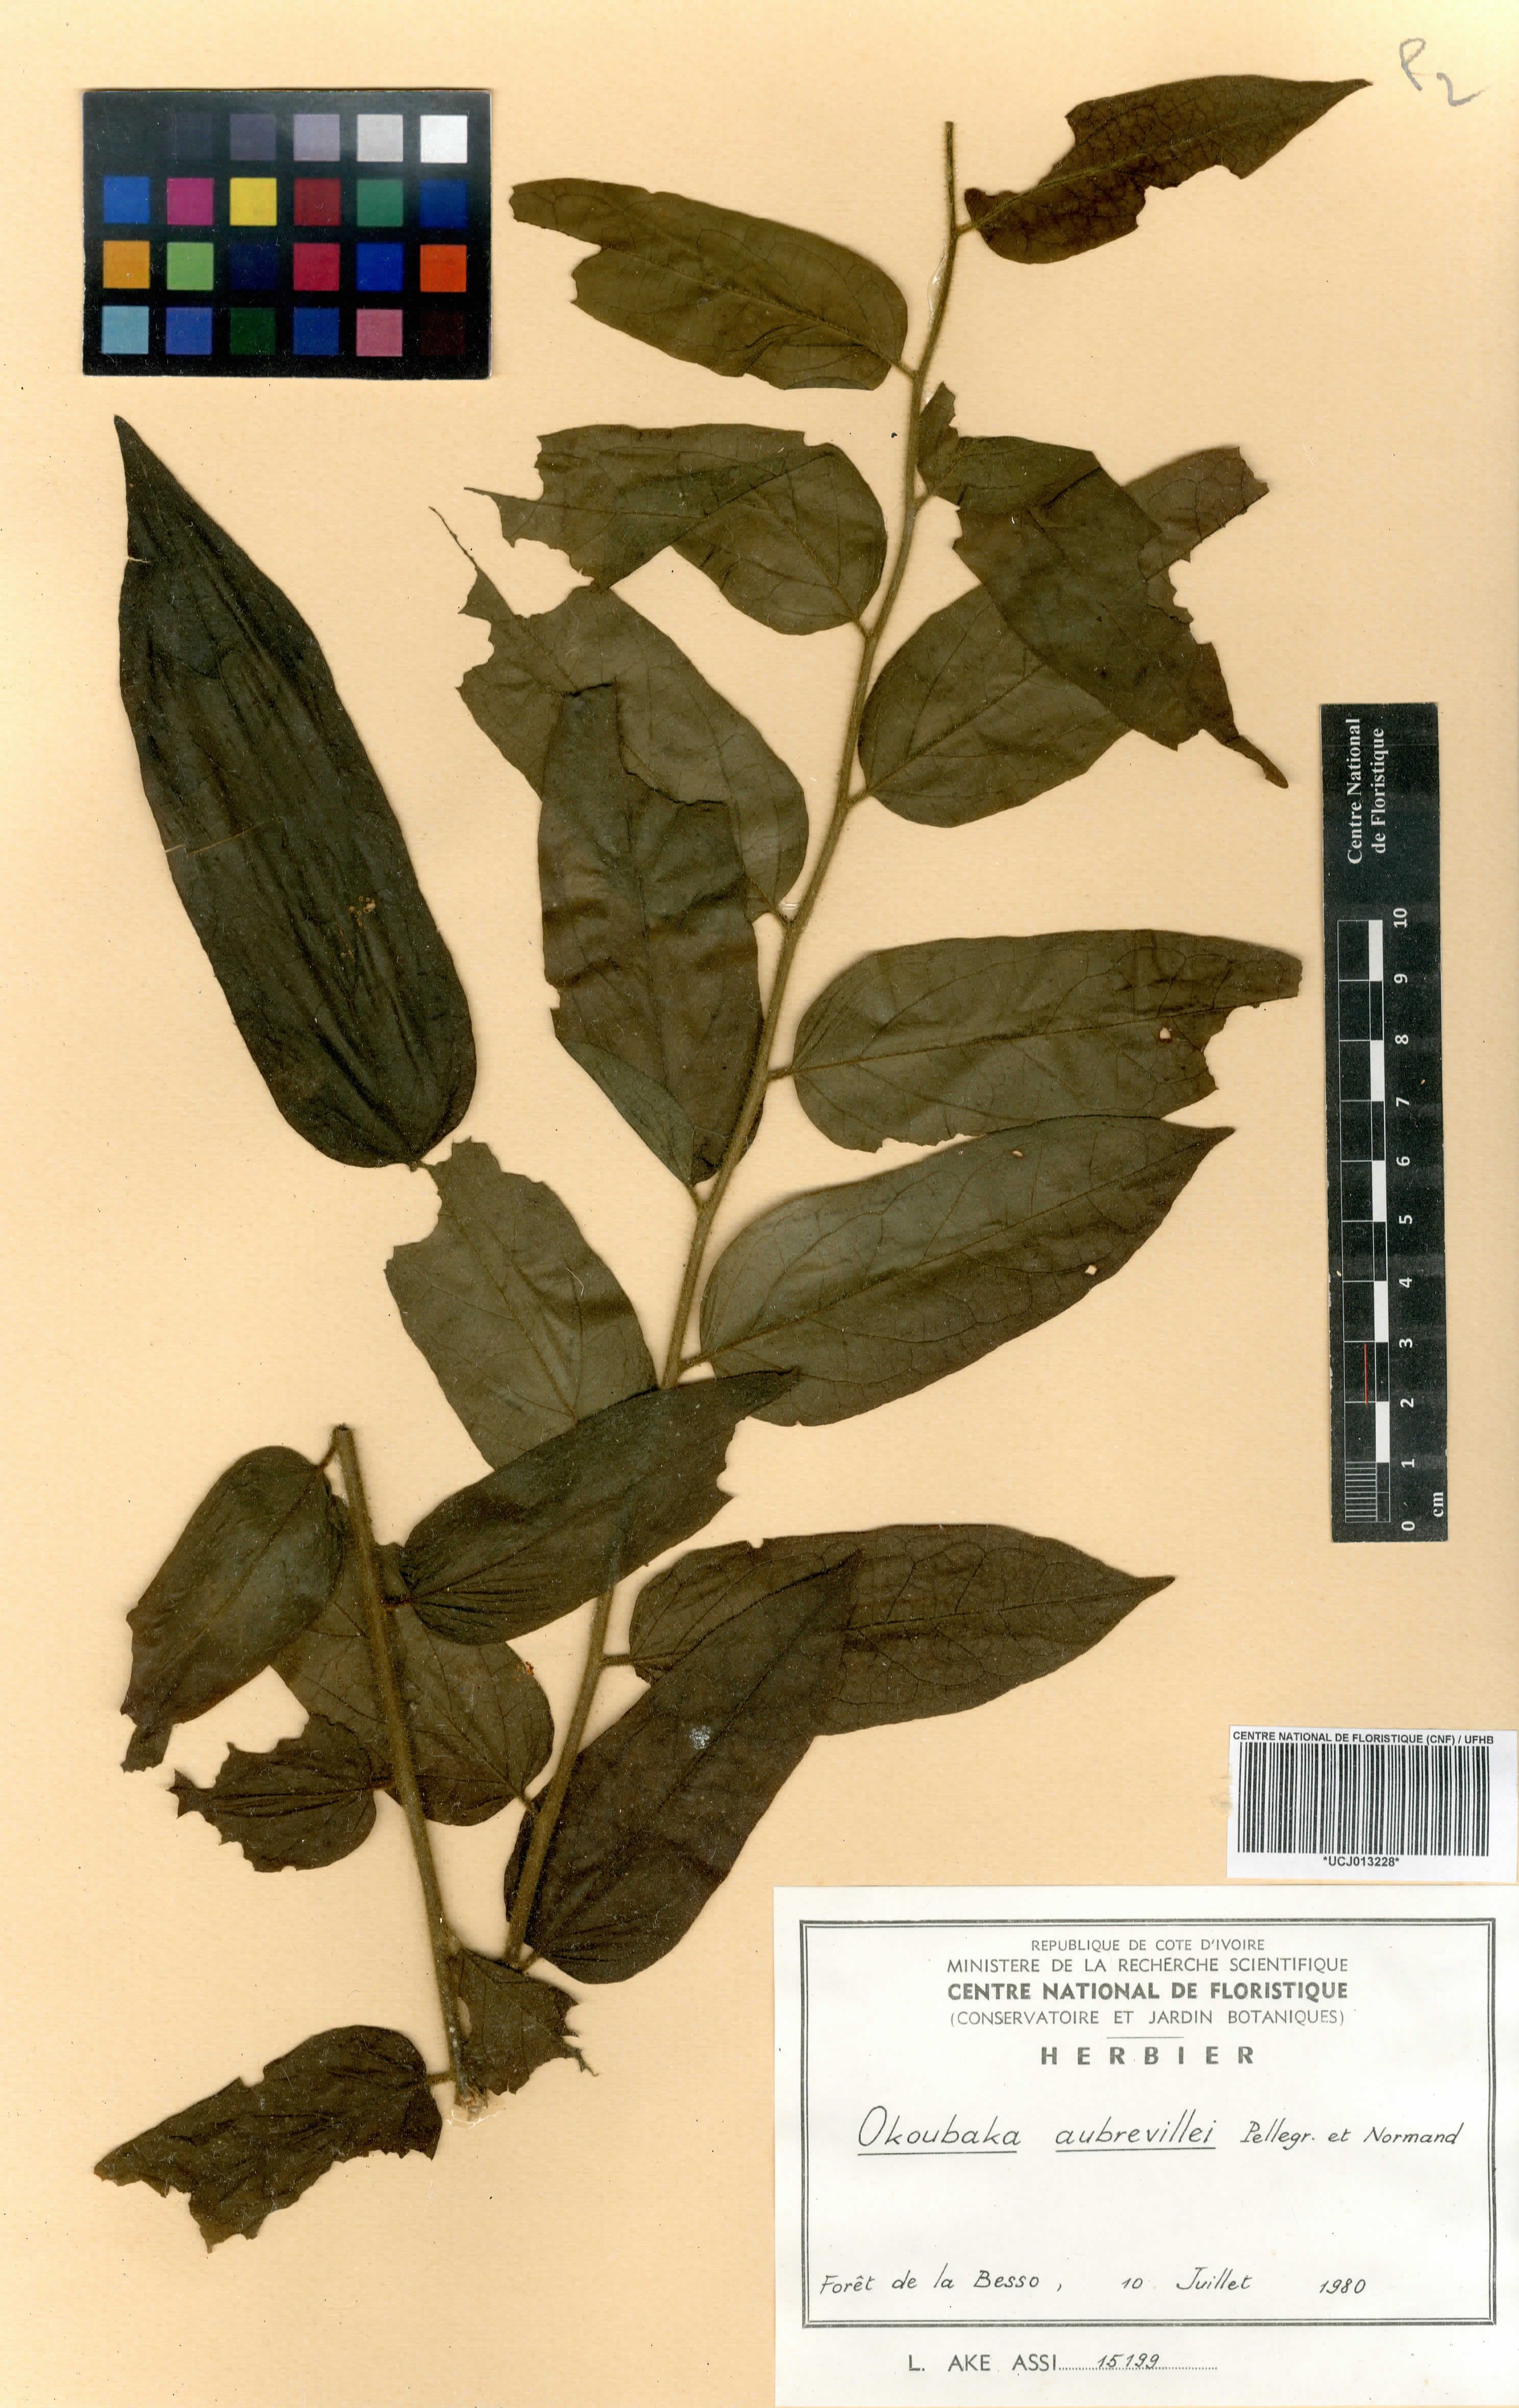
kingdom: Plantae
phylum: Tracheophyta
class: Magnoliopsida
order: Santalales
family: Cervantesiaceae
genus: Okoubaka
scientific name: Okoubaka aubrevillei
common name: Death tree
